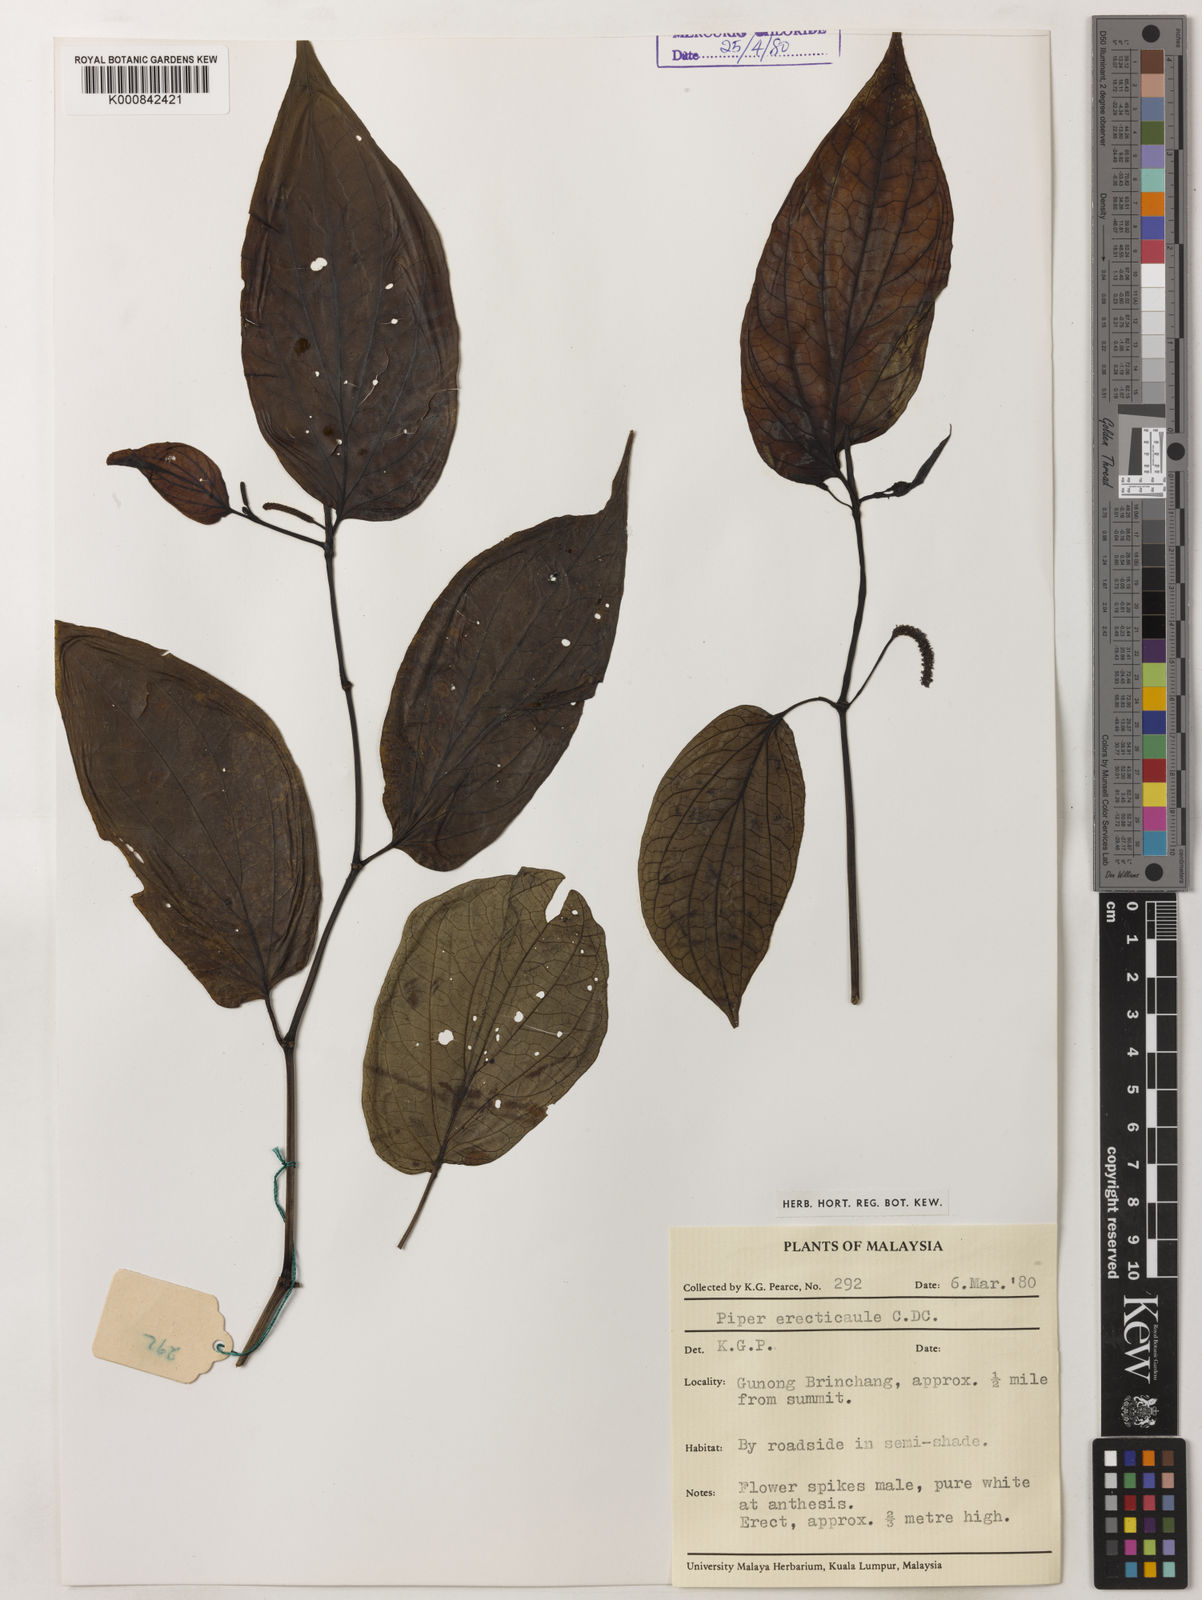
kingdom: Plantae
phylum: Tracheophyta
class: Magnoliopsida
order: Piperales
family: Piperaceae
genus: Piper
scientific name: Piper erecticaule
